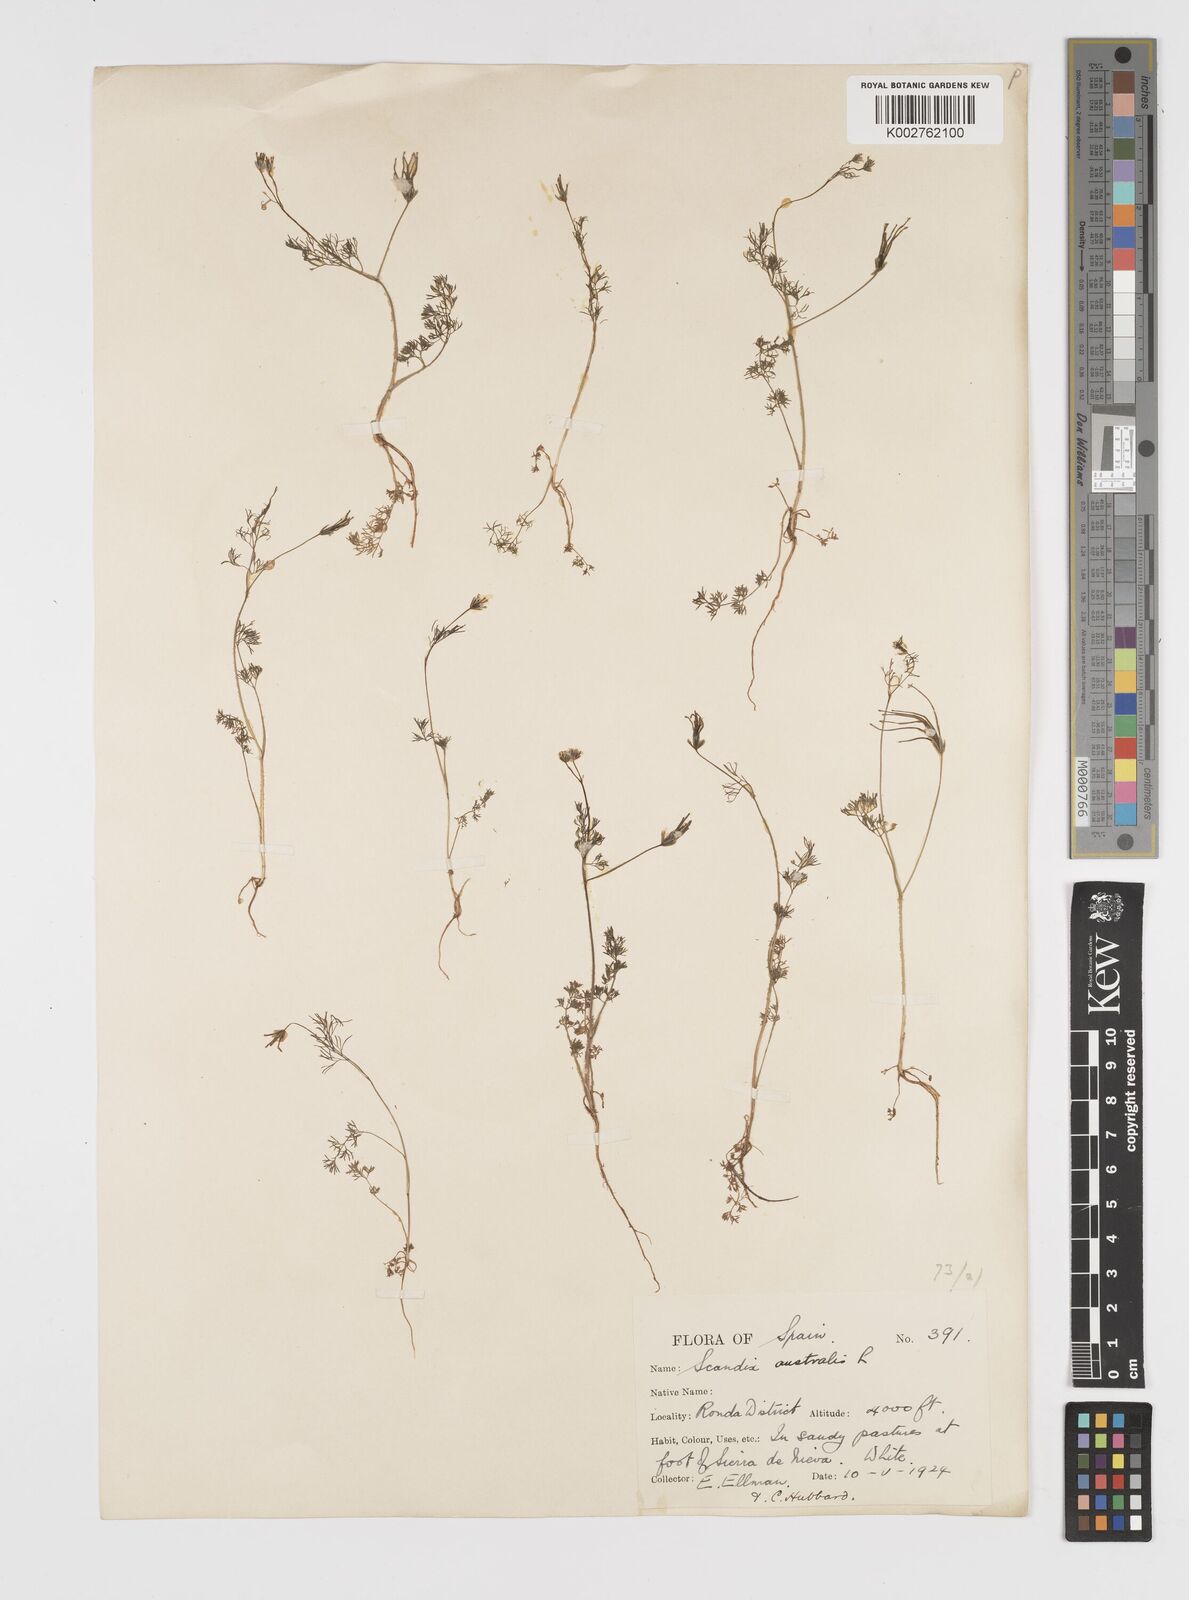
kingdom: Plantae
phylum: Tracheophyta
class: Magnoliopsida
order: Apiales
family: Apiaceae
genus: Scandix
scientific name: Scandix australis
